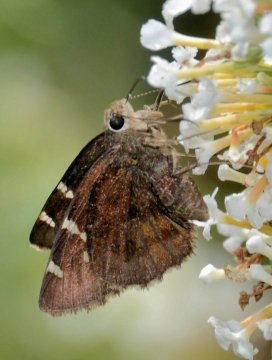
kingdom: Animalia
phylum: Arthropoda
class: Insecta
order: Lepidoptera
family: Hesperiidae
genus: Autochton
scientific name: Autochton
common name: Southern Cloudywing
